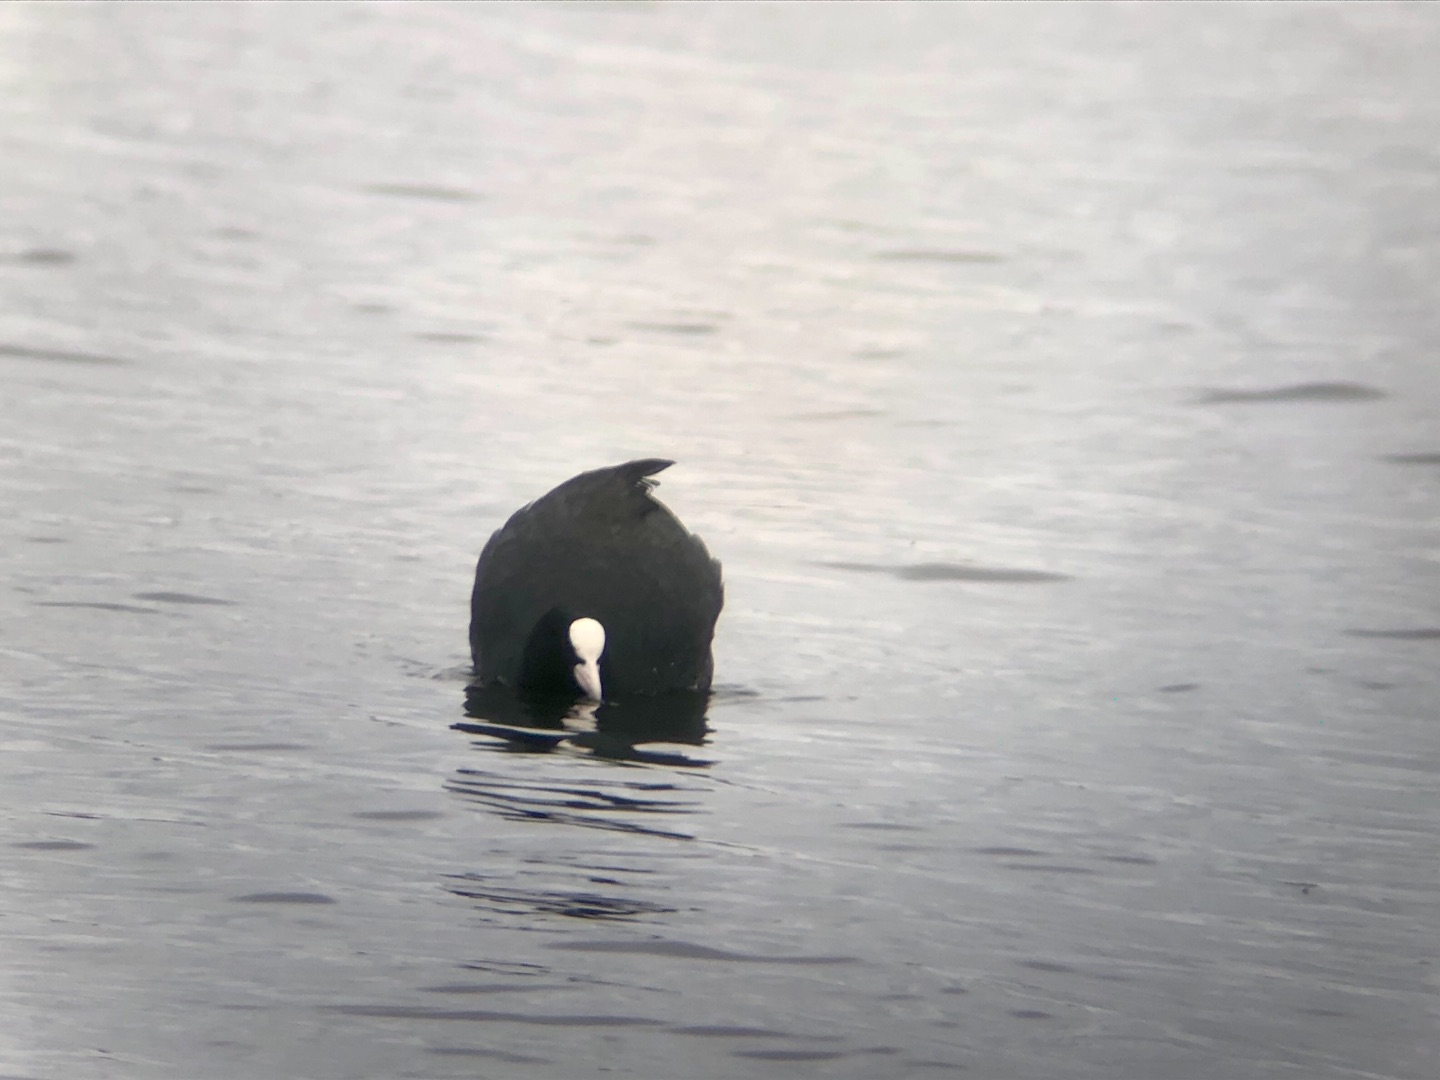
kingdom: Animalia
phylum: Chordata
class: Aves
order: Gruiformes
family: Rallidae
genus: Fulica
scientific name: Fulica atra
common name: Blishøne
